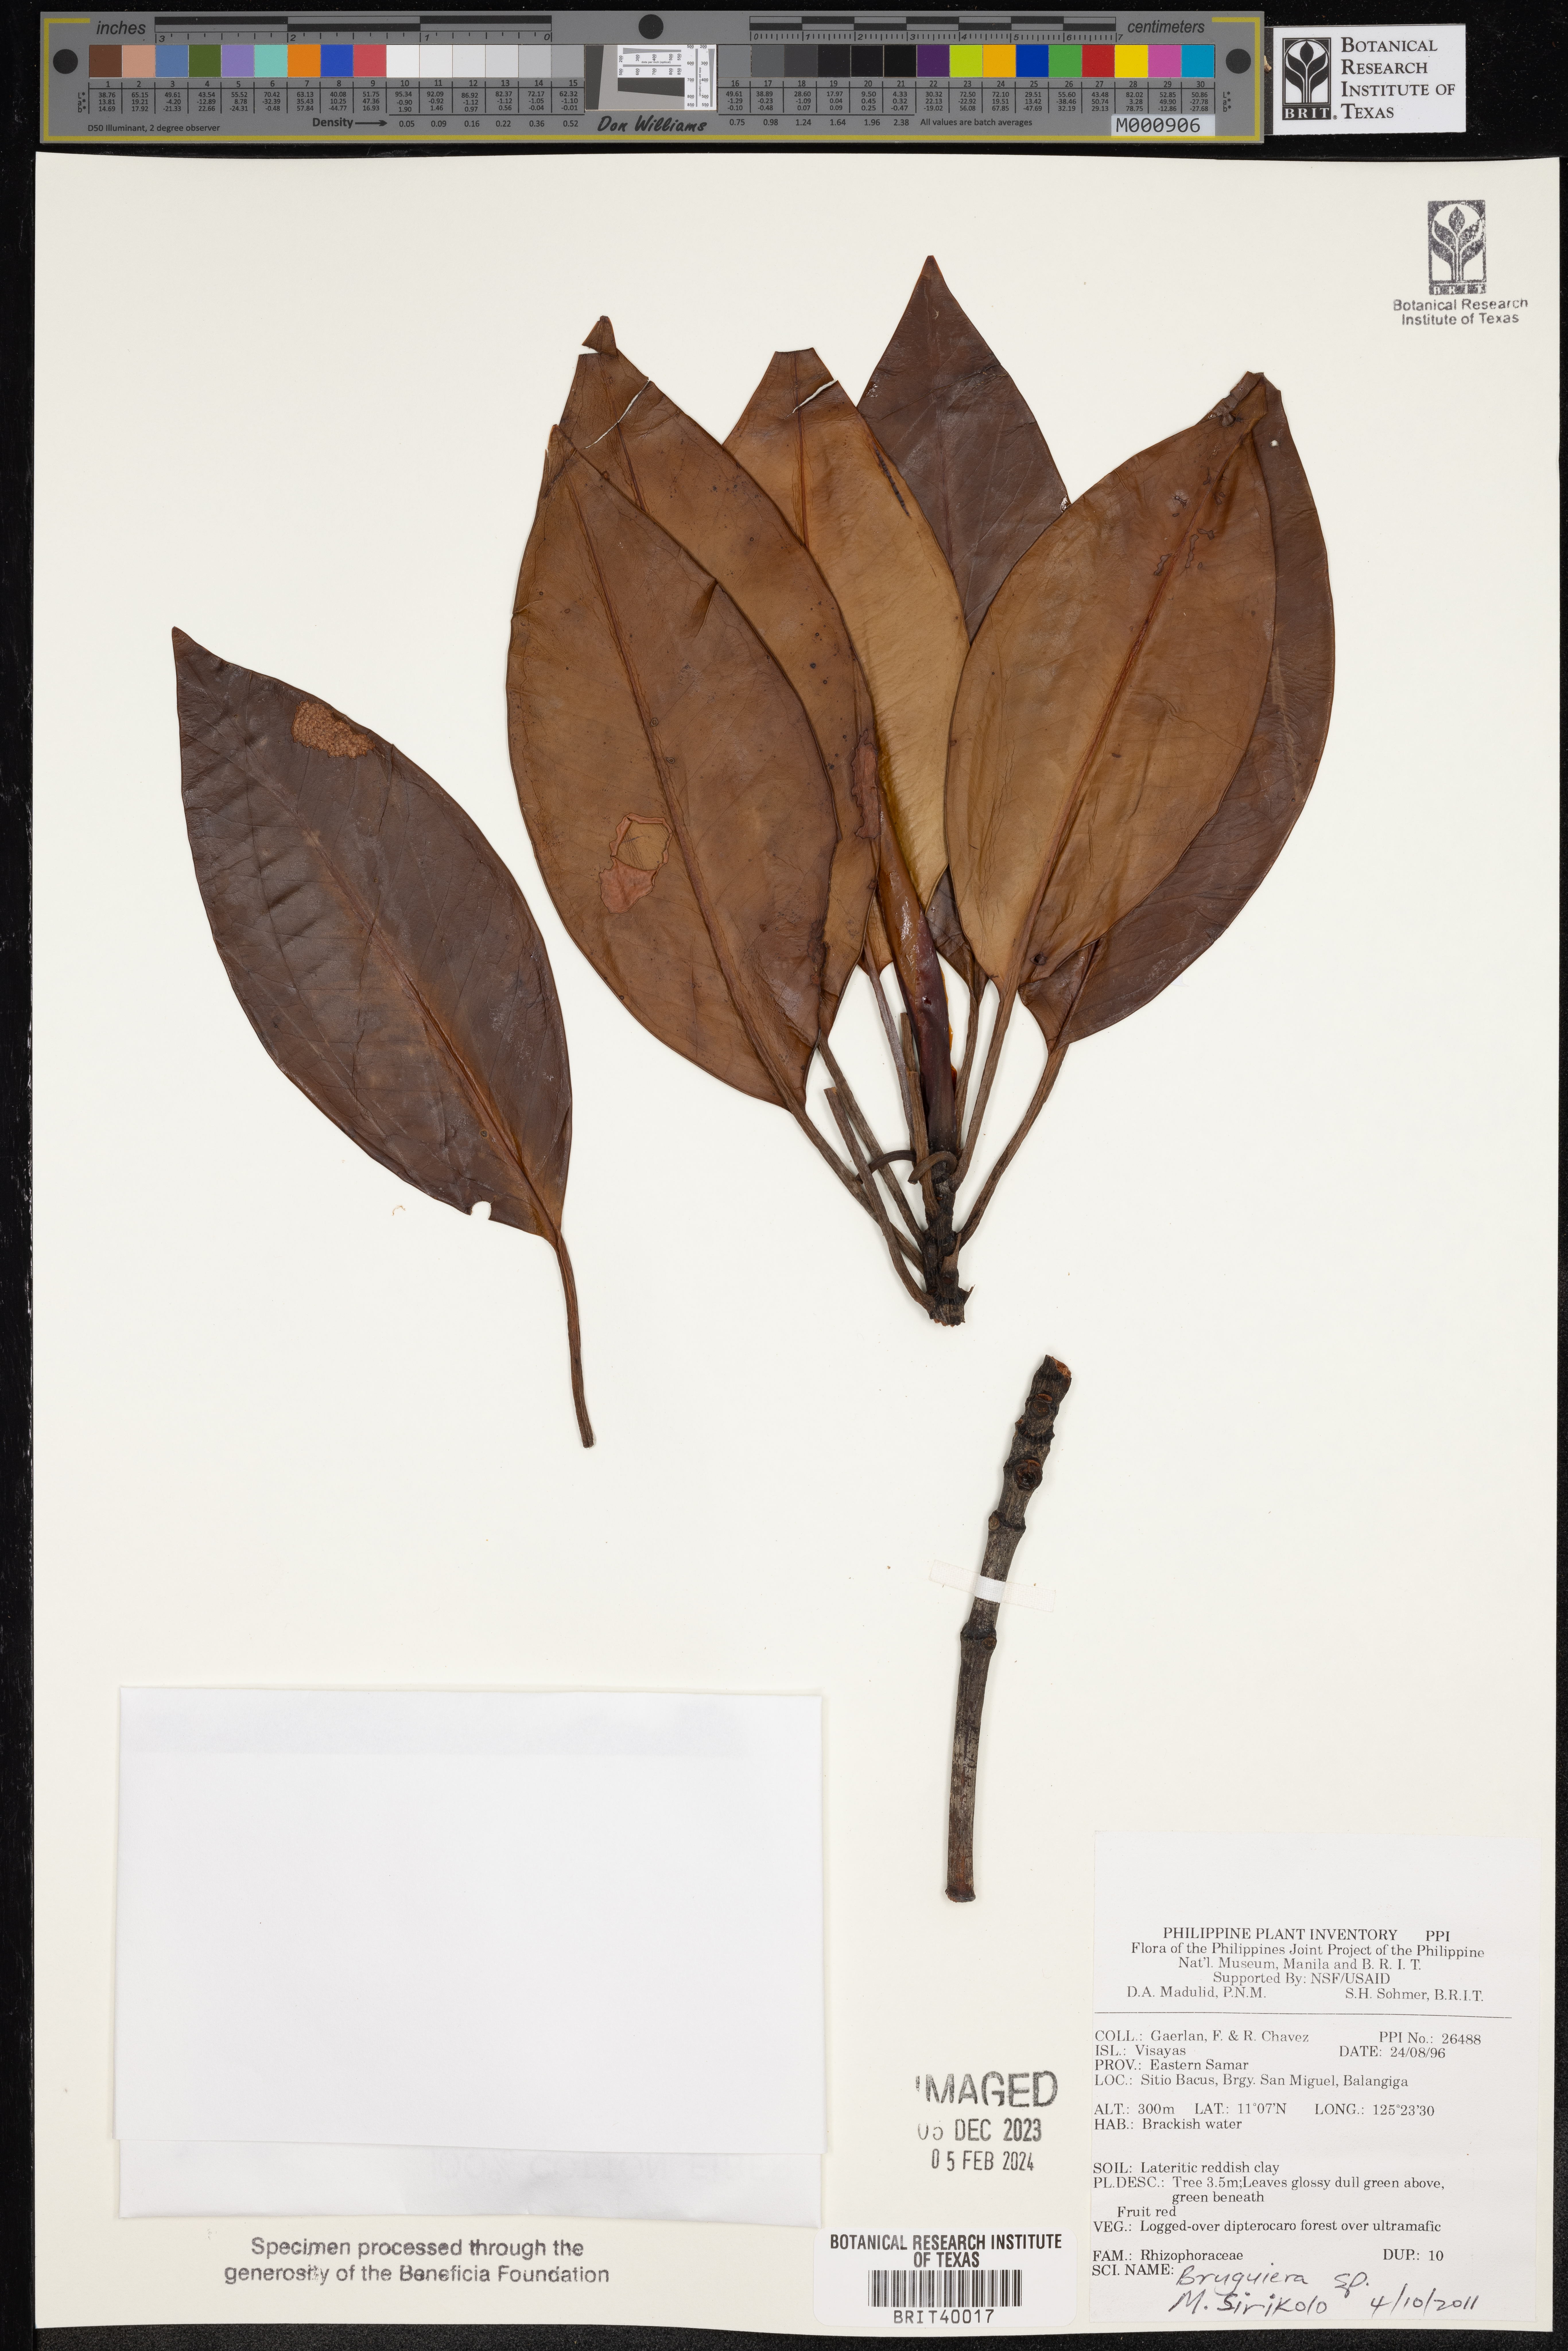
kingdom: Plantae
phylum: Tracheophyta
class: Magnoliopsida
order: Malpighiales
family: Rhizophoraceae
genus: Bruguiera
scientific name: Bruguiera
